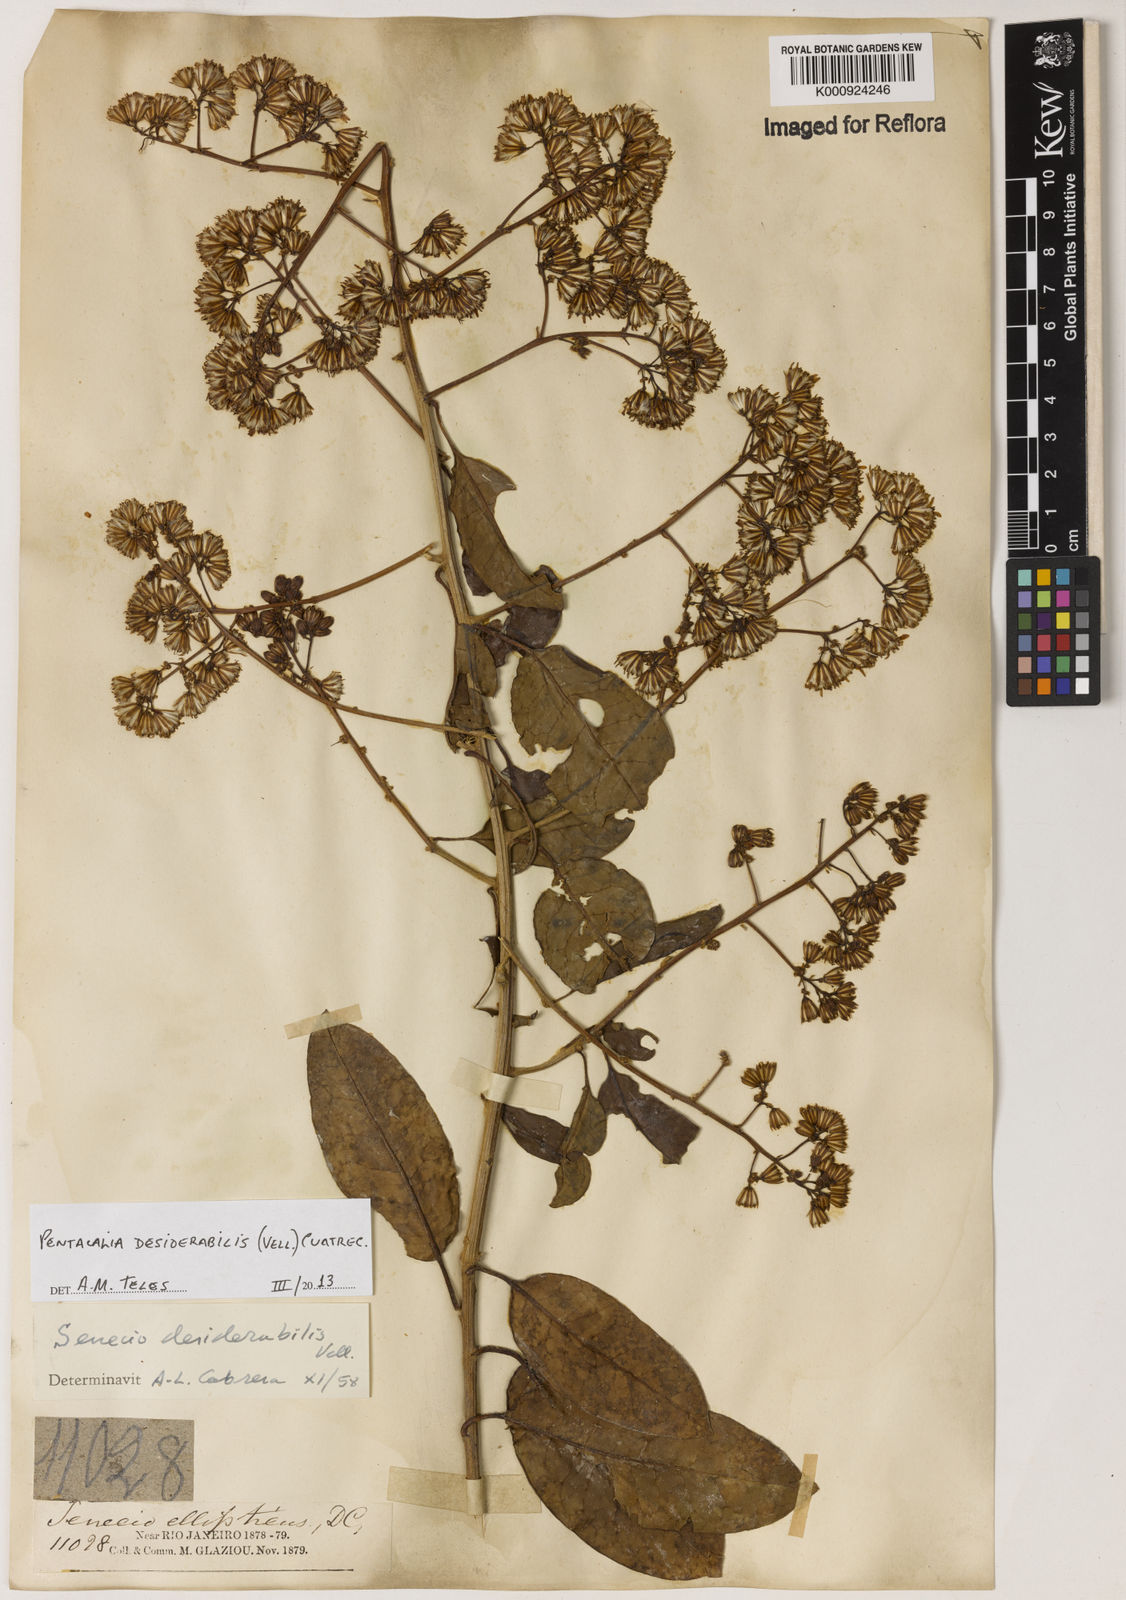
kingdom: Plantae
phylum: Tracheophyta
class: Magnoliopsida
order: Asterales
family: Asteraceae
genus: Pentacalia
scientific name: Pentacalia desiderabilis
